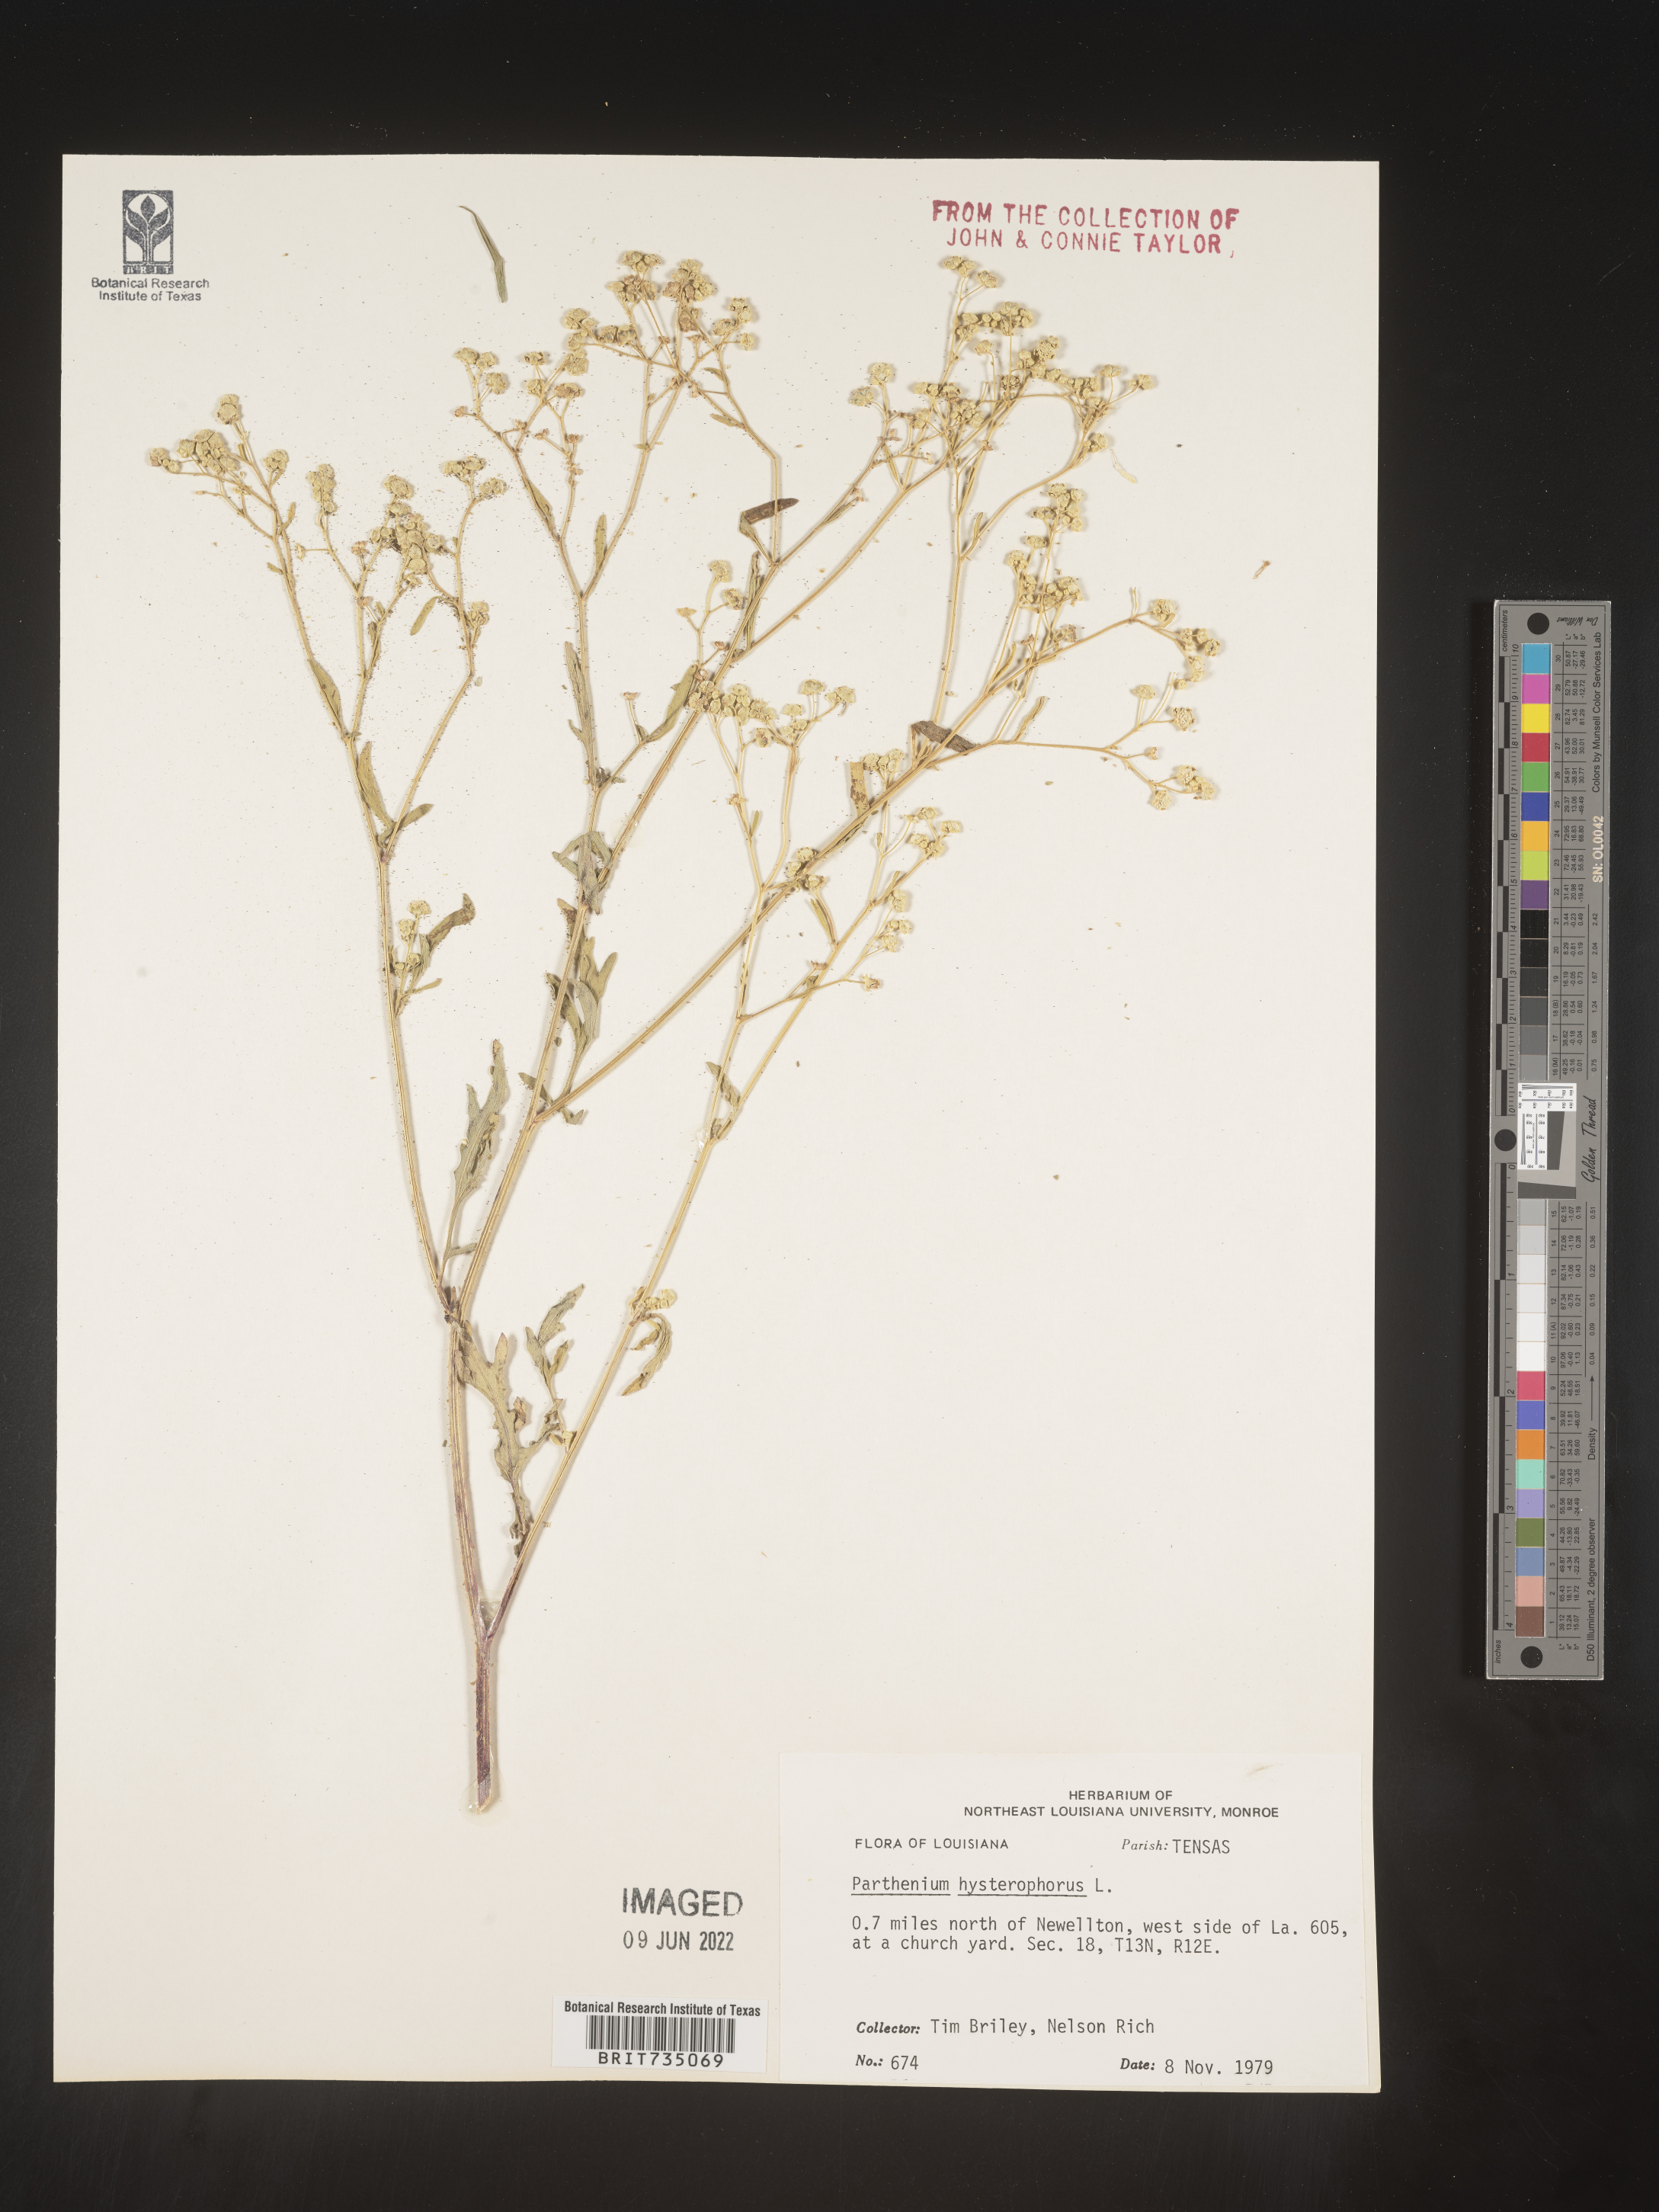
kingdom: Plantae
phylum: Tracheophyta
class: Magnoliopsida
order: Asterales
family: Asteraceae
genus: Parthenium
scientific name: Parthenium hysterophorus
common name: Santa maria feverfew
